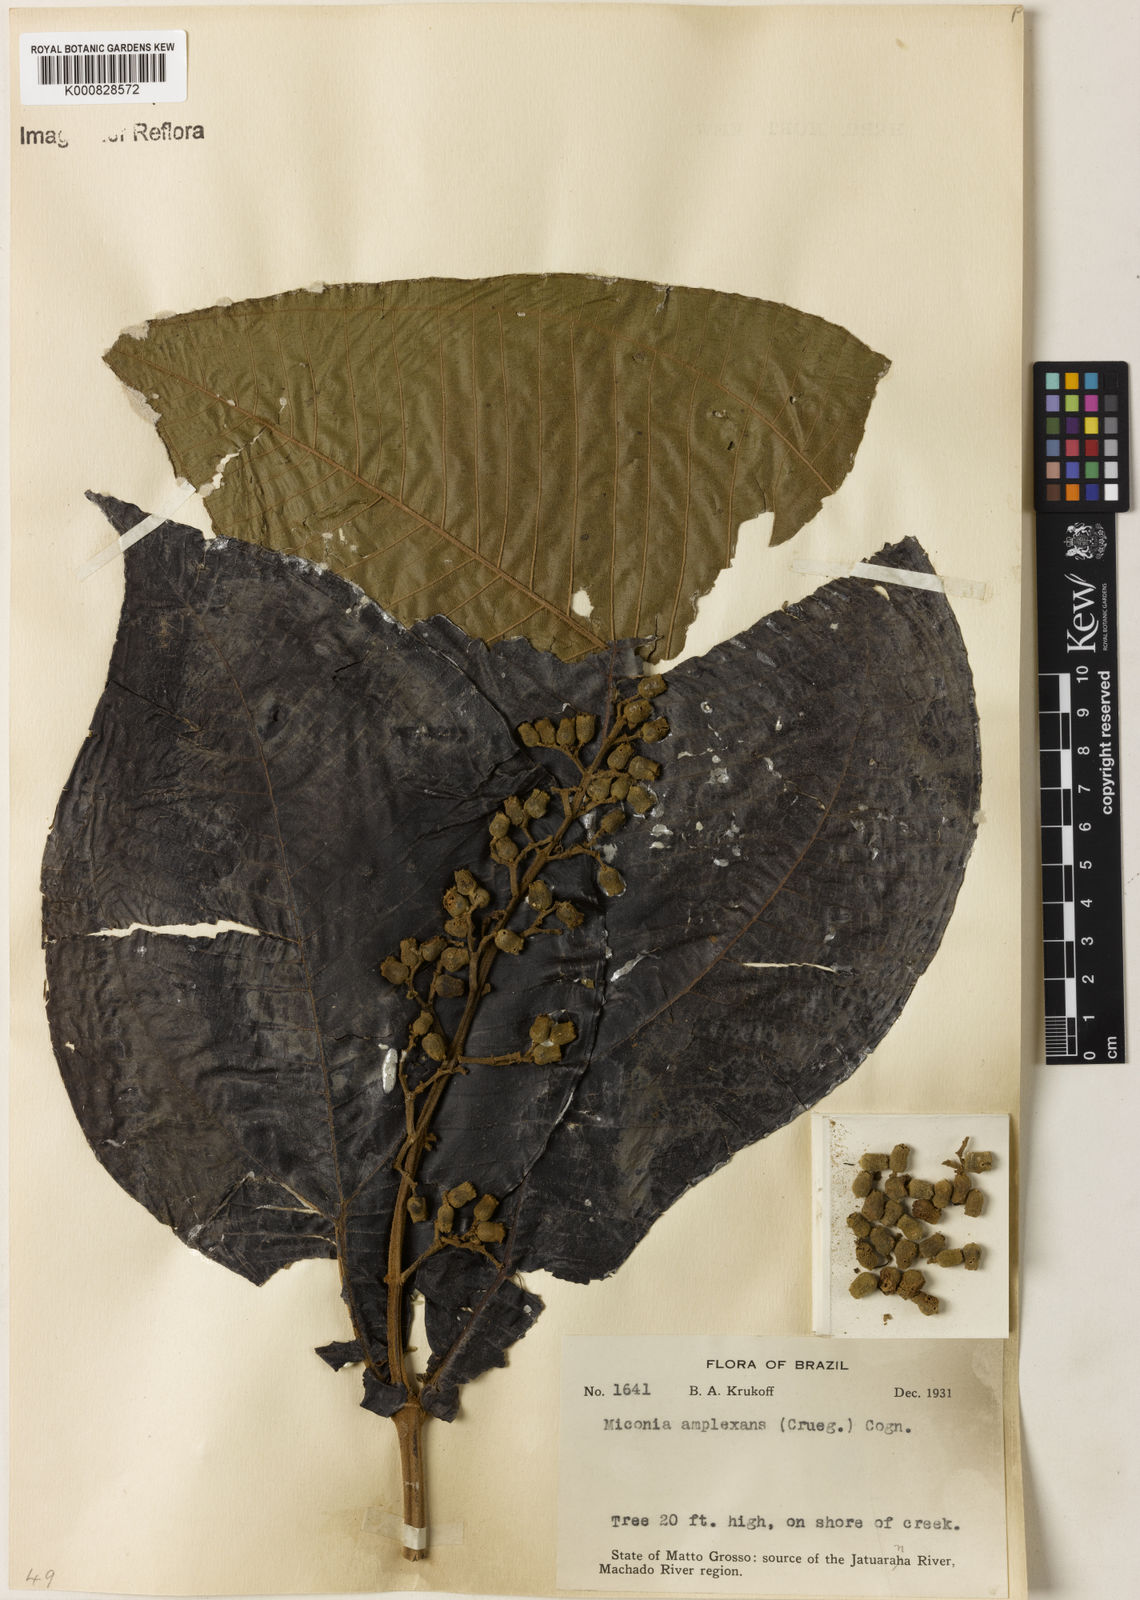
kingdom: Plantae
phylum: Tracheophyta
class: Magnoliopsida
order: Myrtales
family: Melastomataceae
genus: Miconia
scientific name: Miconia tomentosa
